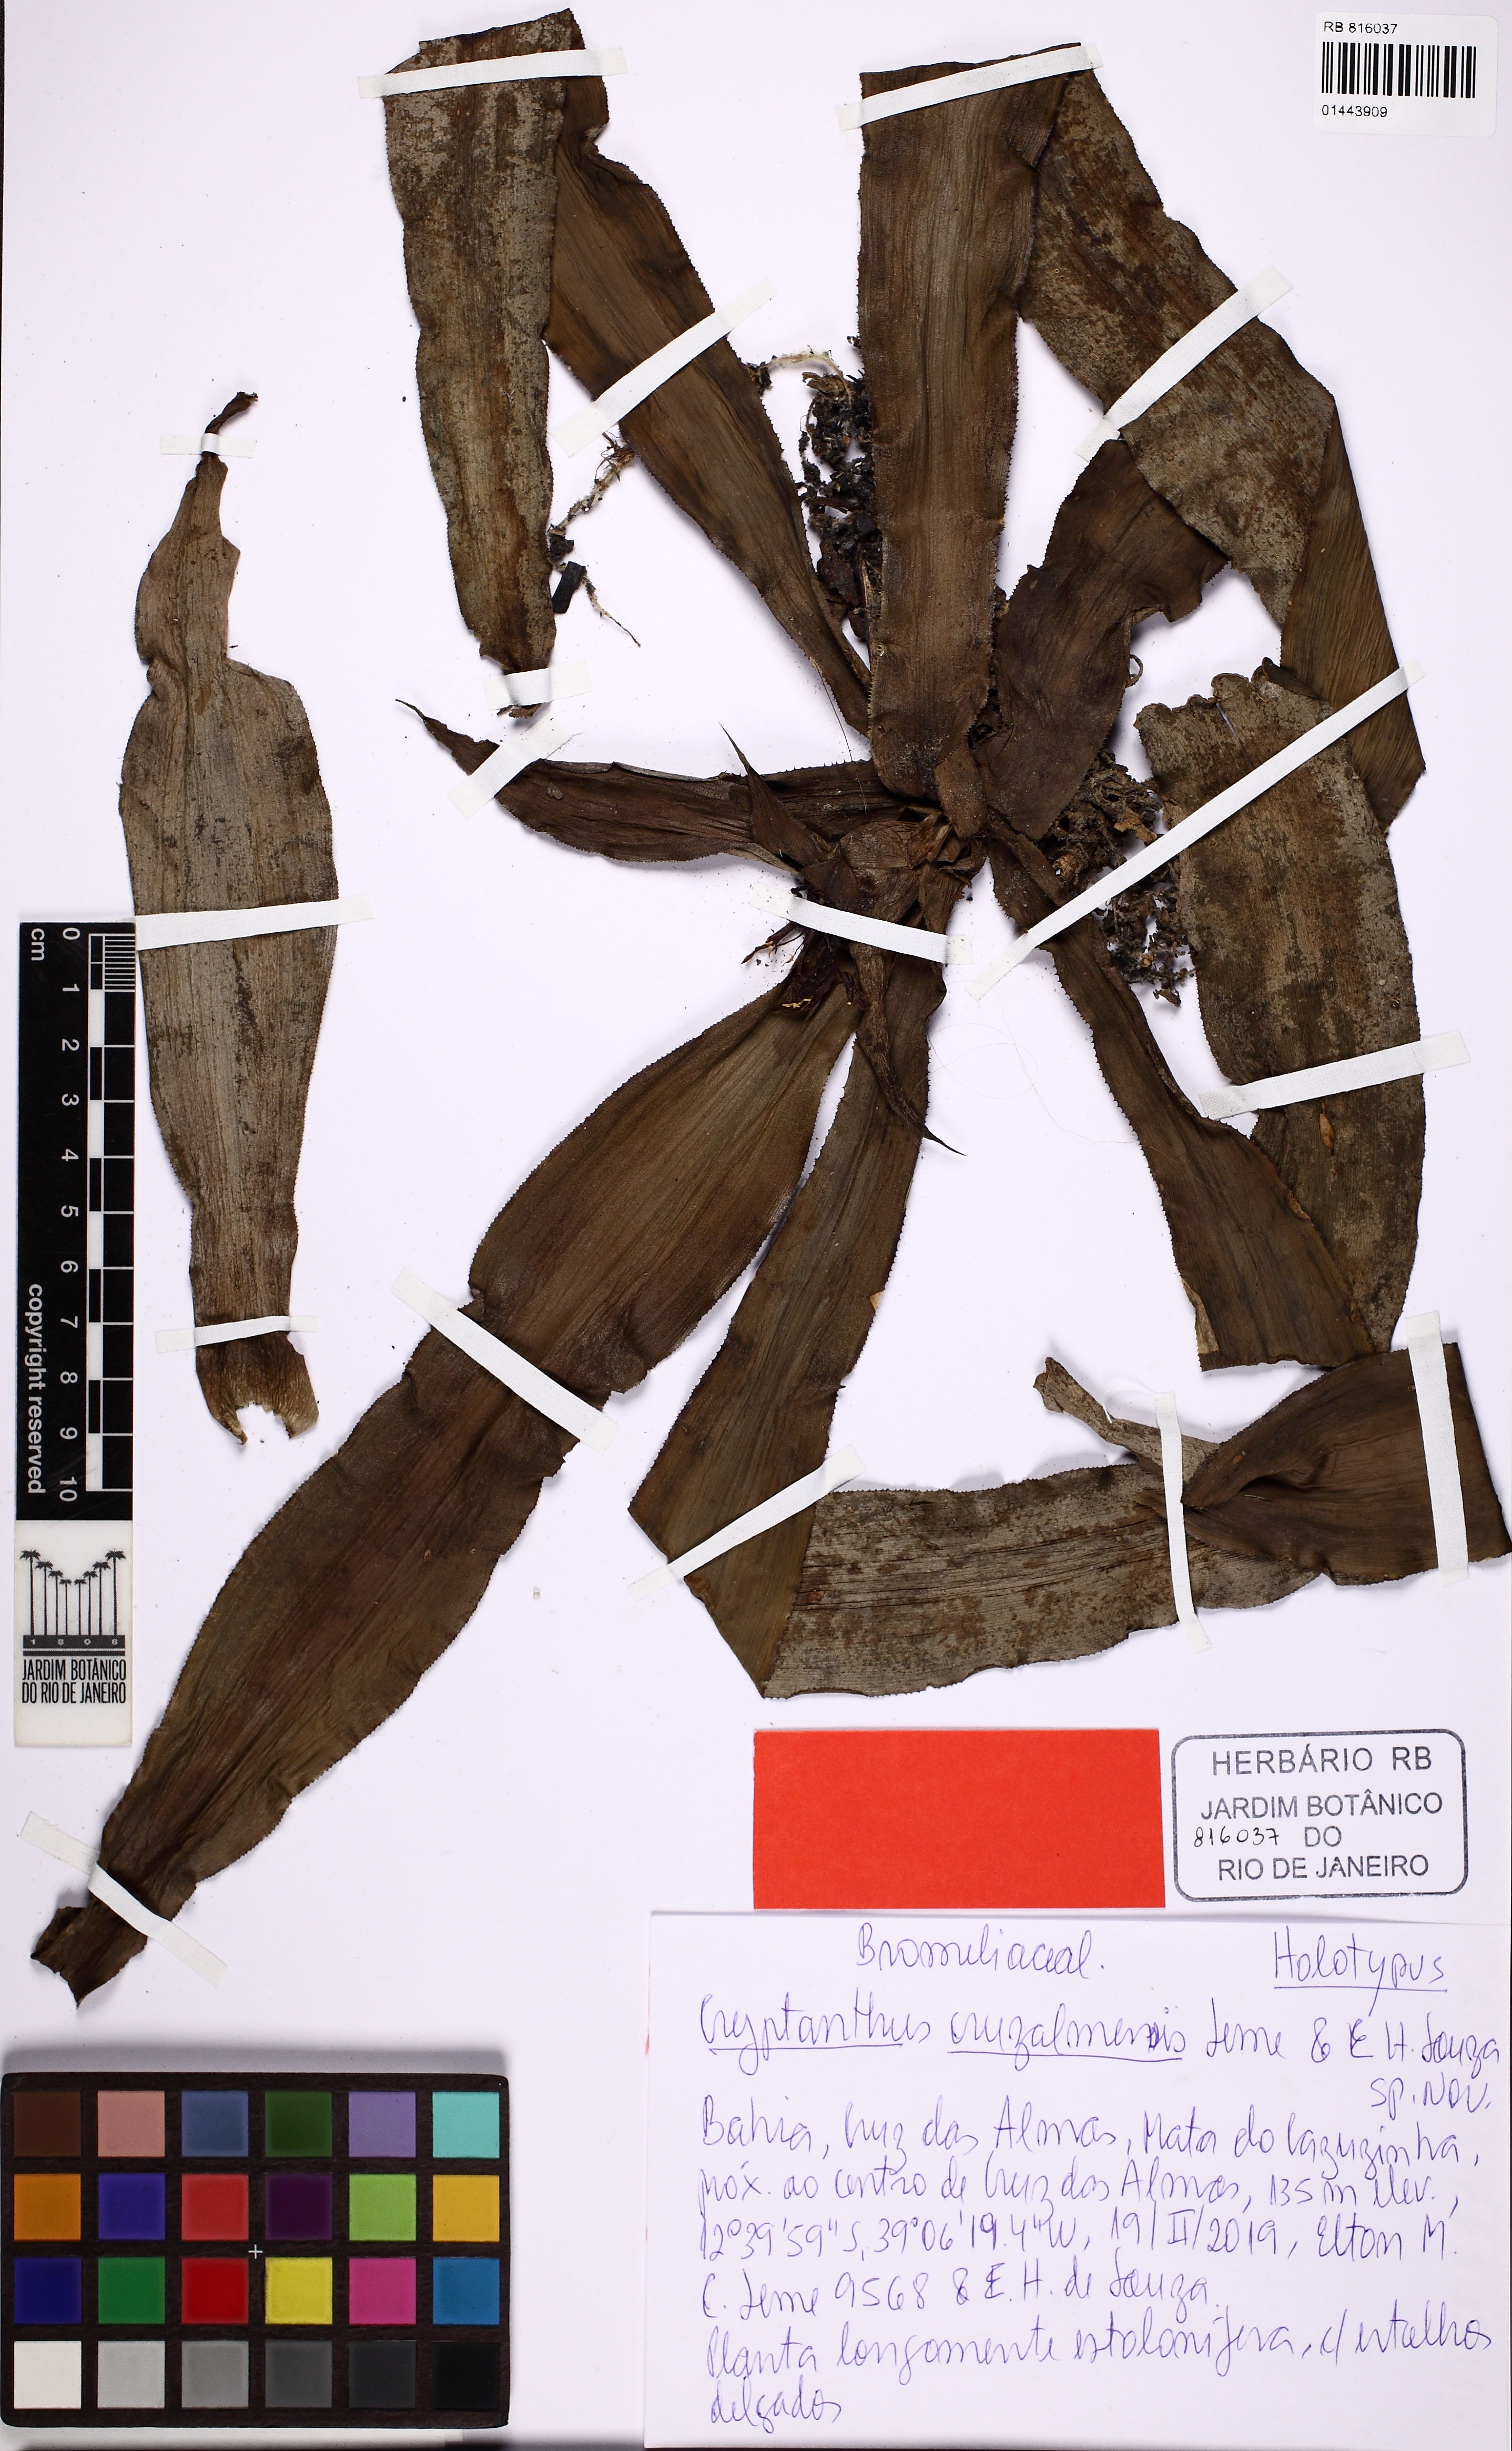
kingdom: Plantae
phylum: Tracheophyta
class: Liliopsida
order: Poales
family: Bromeliaceae
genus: Cryptanthus
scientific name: Cryptanthus cruzalmensis
